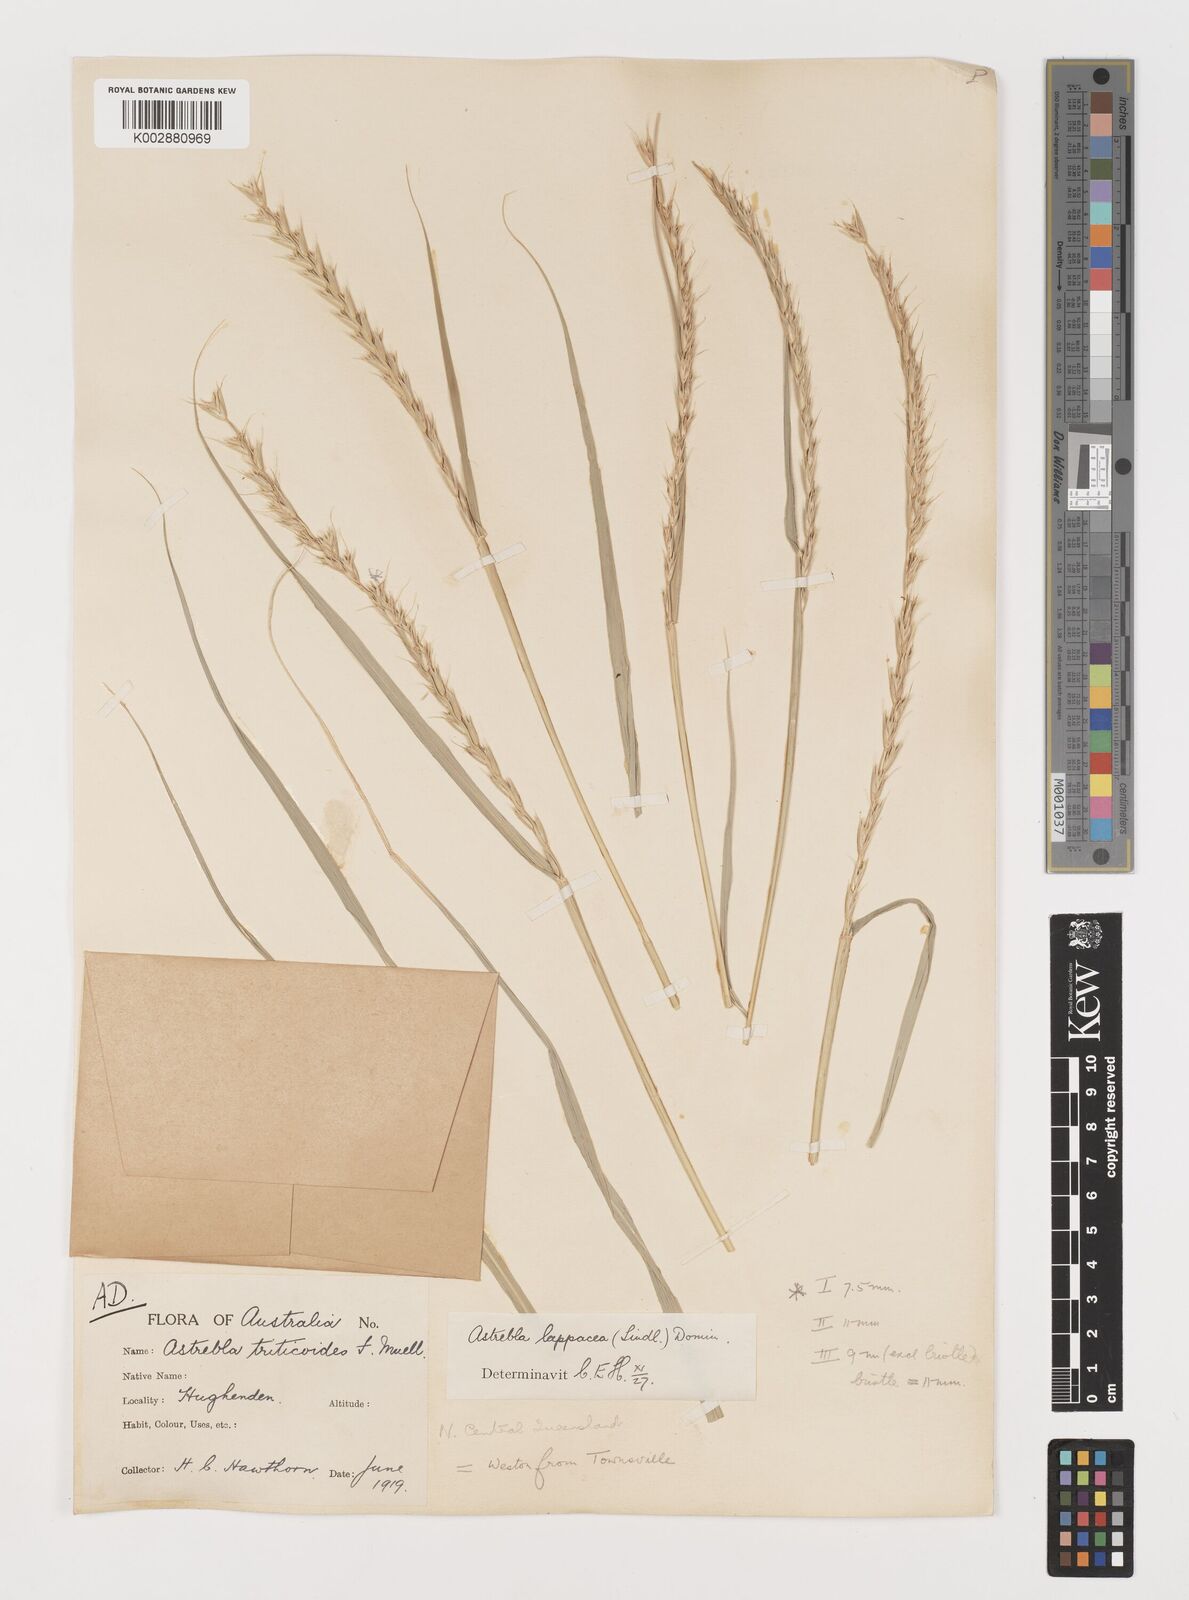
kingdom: Plantae
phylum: Tracheophyta
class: Liliopsida
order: Poales
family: Poaceae
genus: Astrebla
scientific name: Astrebla lappacea
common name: Curly mitchell grass
